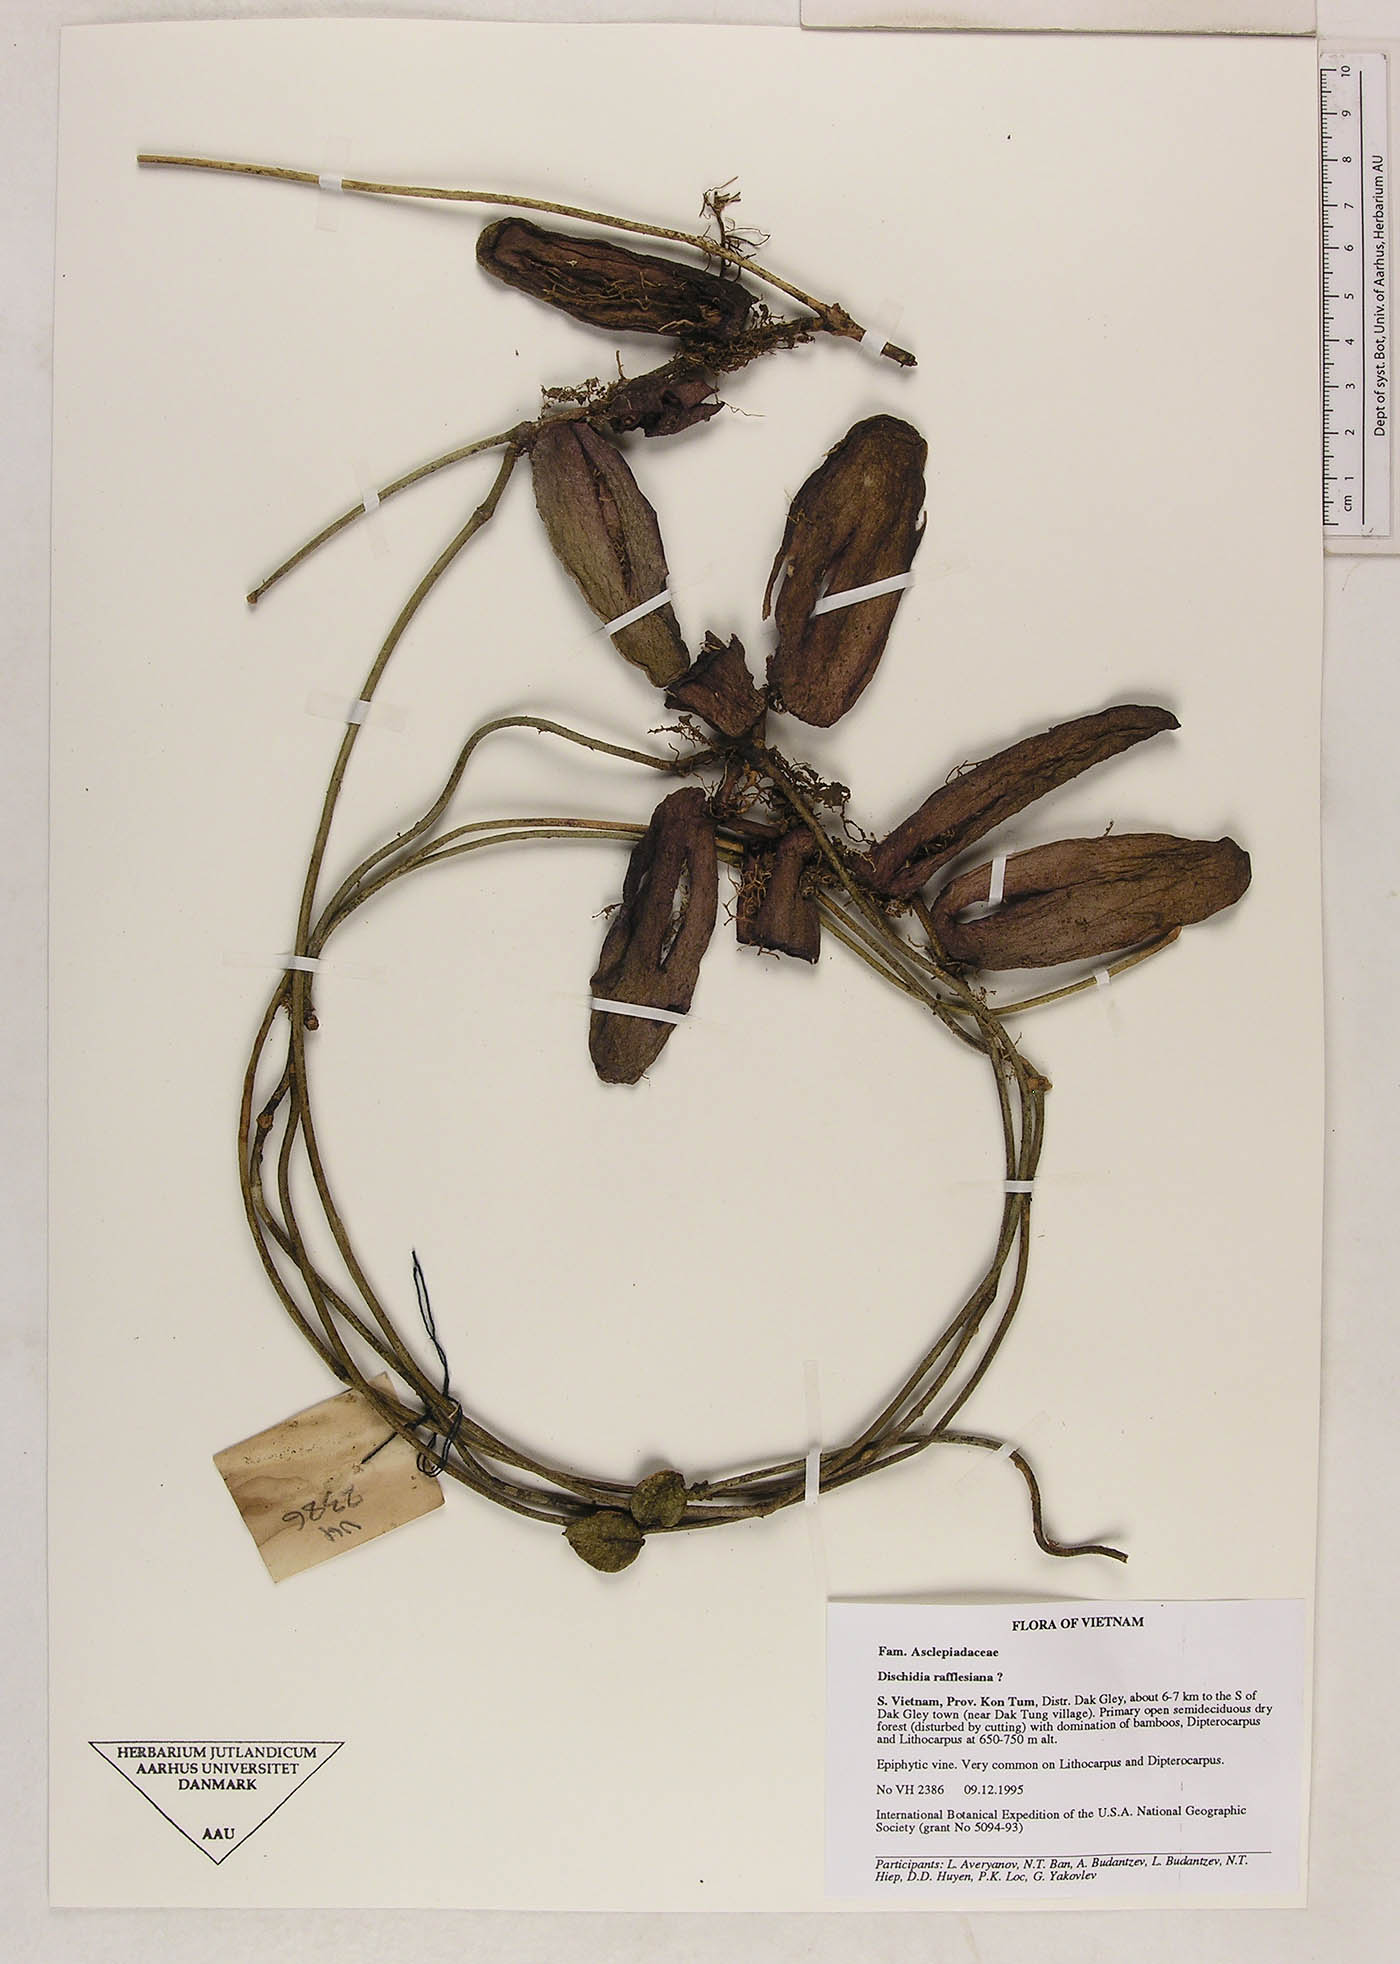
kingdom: Plantae
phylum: Tracheophyta
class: Magnoliopsida
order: Gentianales
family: Apocynaceae
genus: Dischidia
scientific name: Dischidia major
